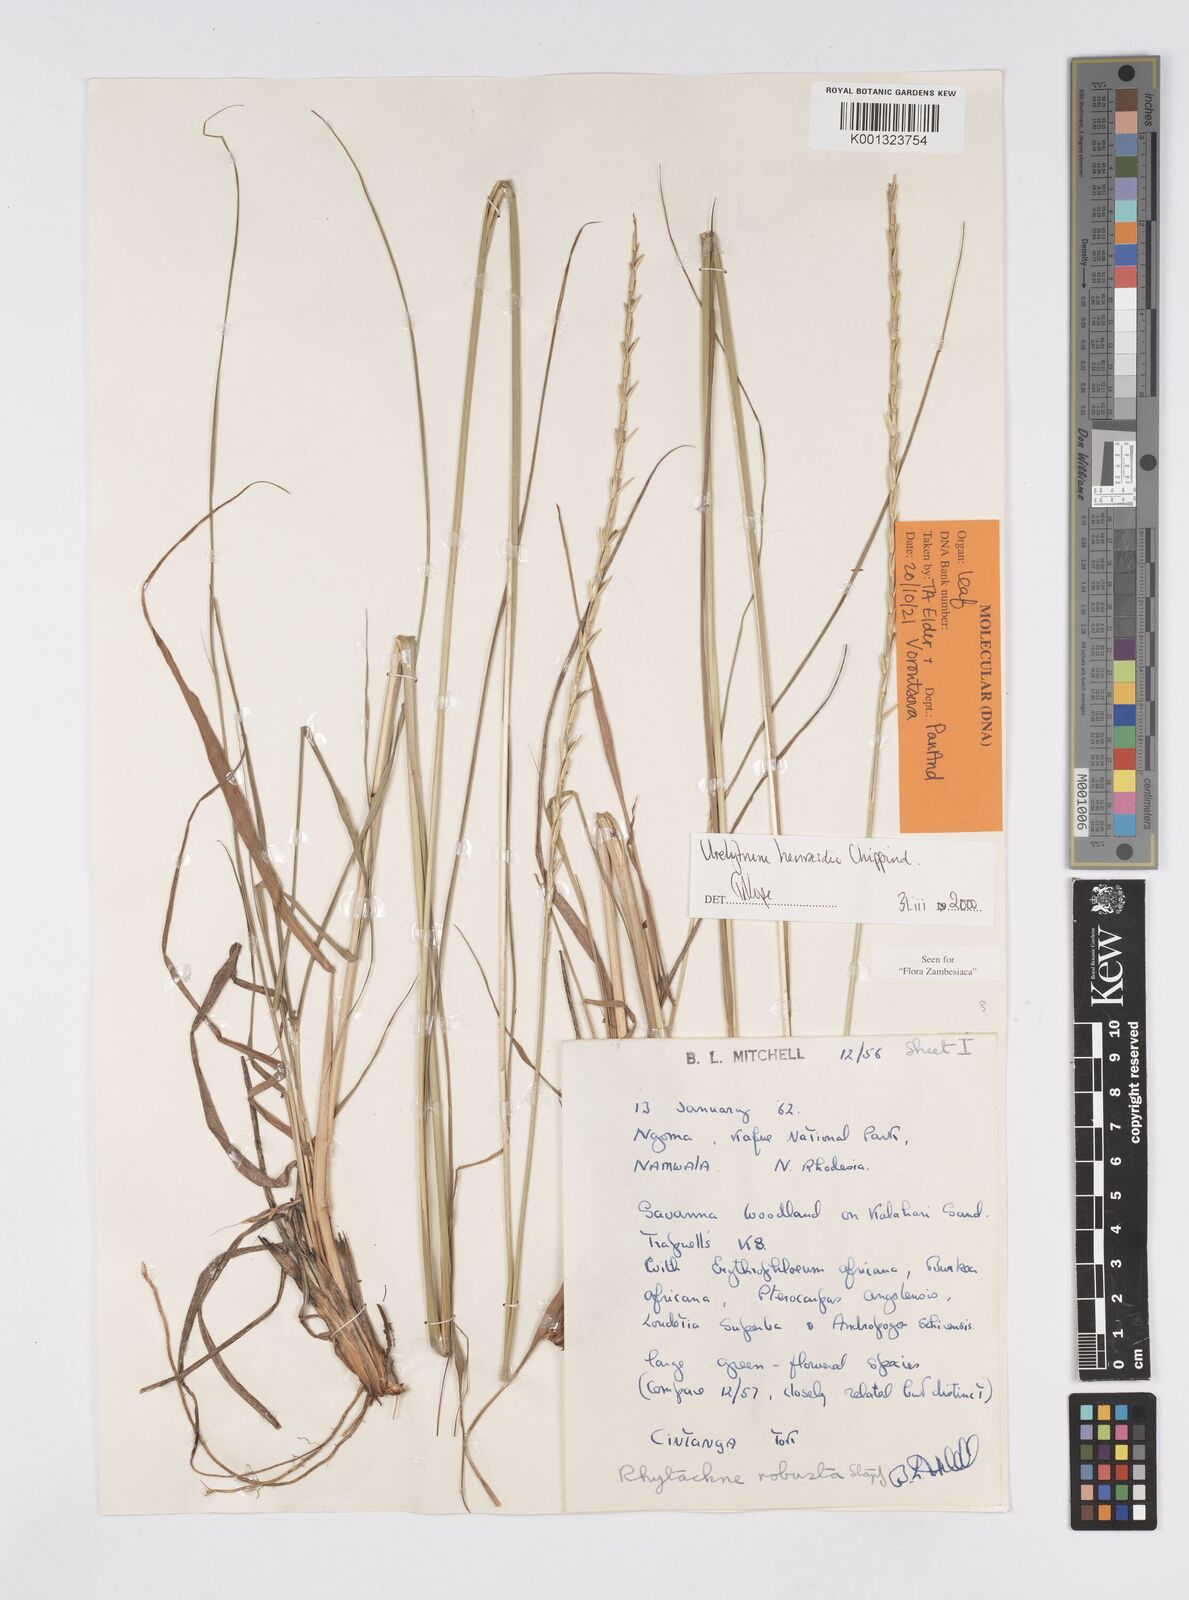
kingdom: Plantae
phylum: Tracheophyta
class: Liliopsida
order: Poales
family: Poaceae
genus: Urelytrum
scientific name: Urelytrum henrardii
